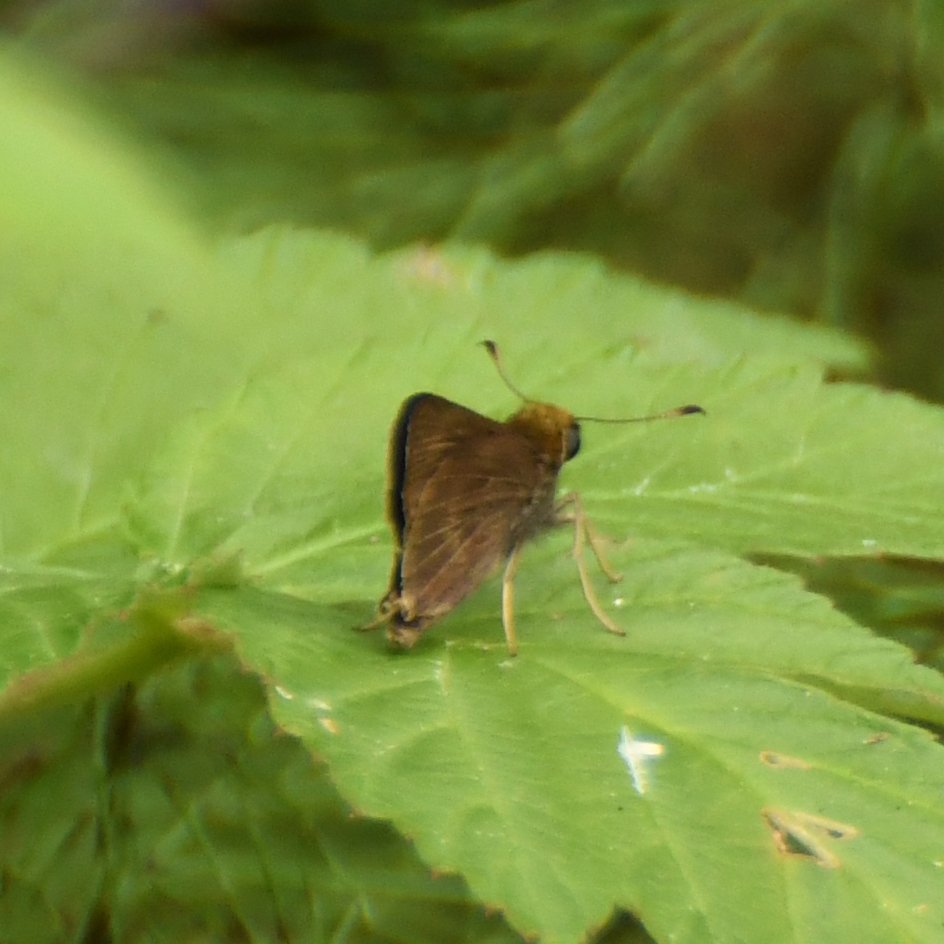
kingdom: Animalia
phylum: Arthropoda
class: Insecta
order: Lepidoptera
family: Hesperiidae
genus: Euphyes
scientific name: Euphyes vestris
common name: Dun Skipper
